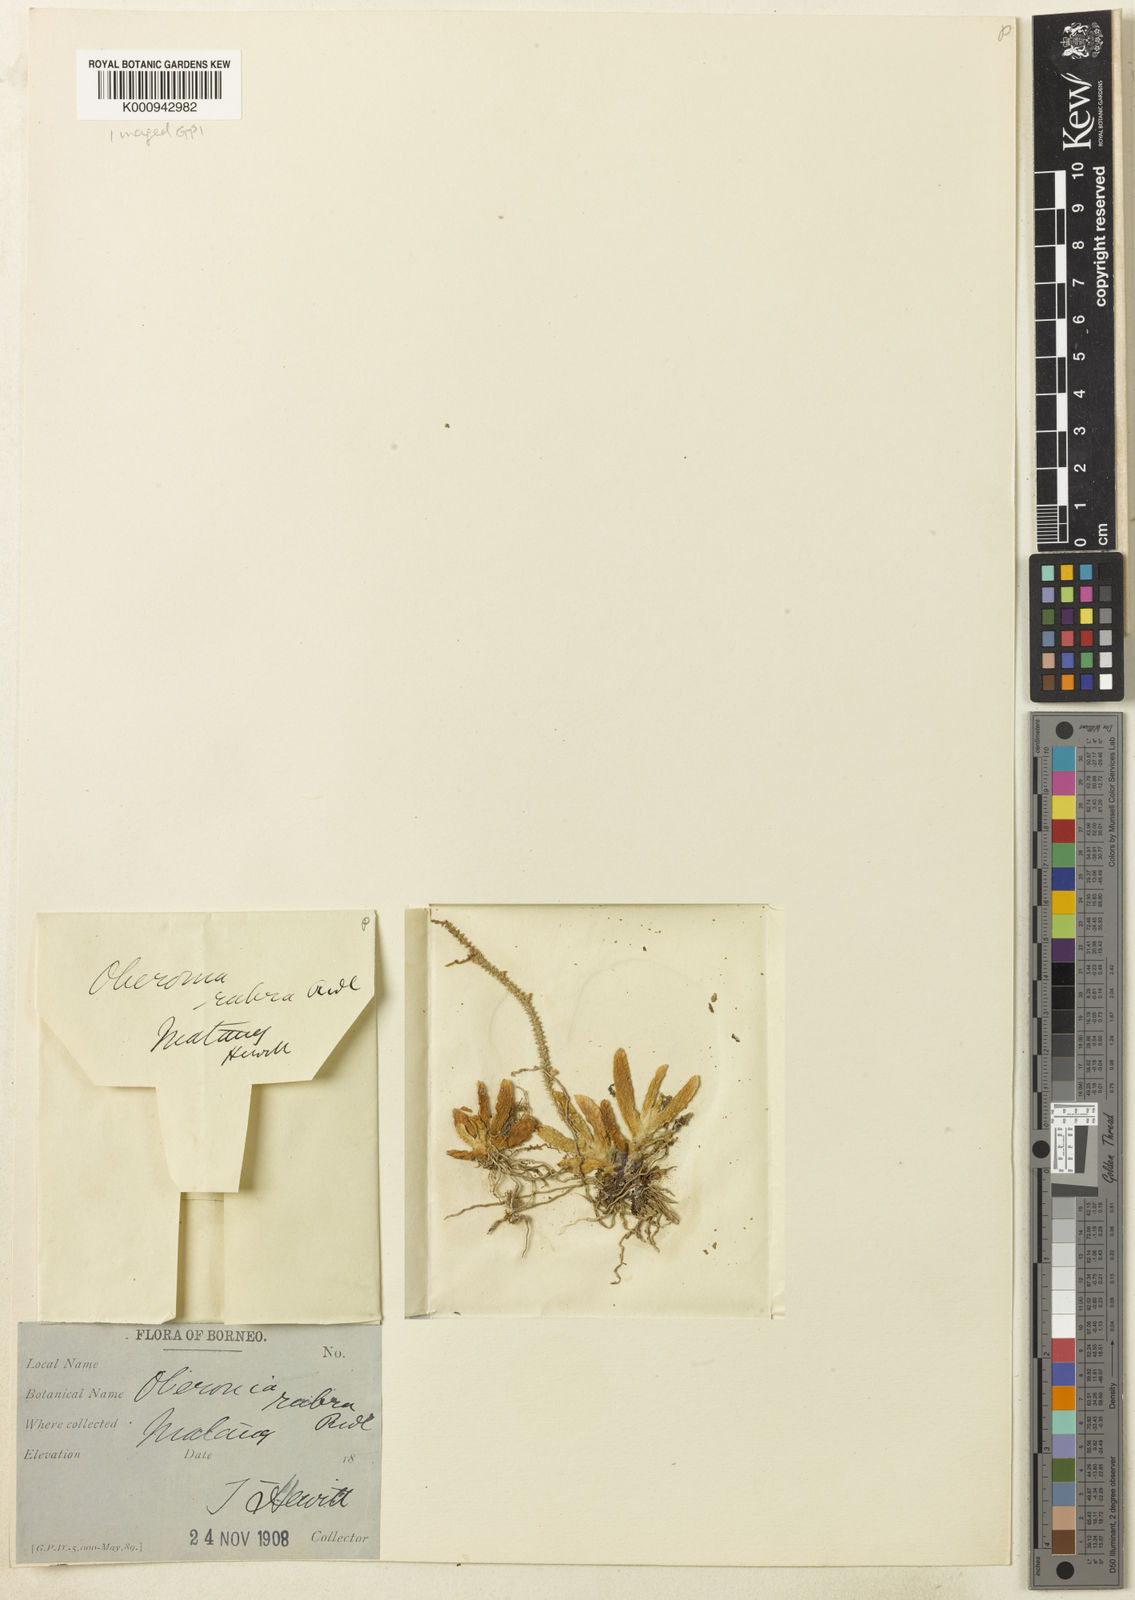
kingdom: Plantae
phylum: Tracheophyta
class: Liliopsida
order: Asparagales
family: Orchidaceae
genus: Oberonia
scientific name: Oberonia microphylla
